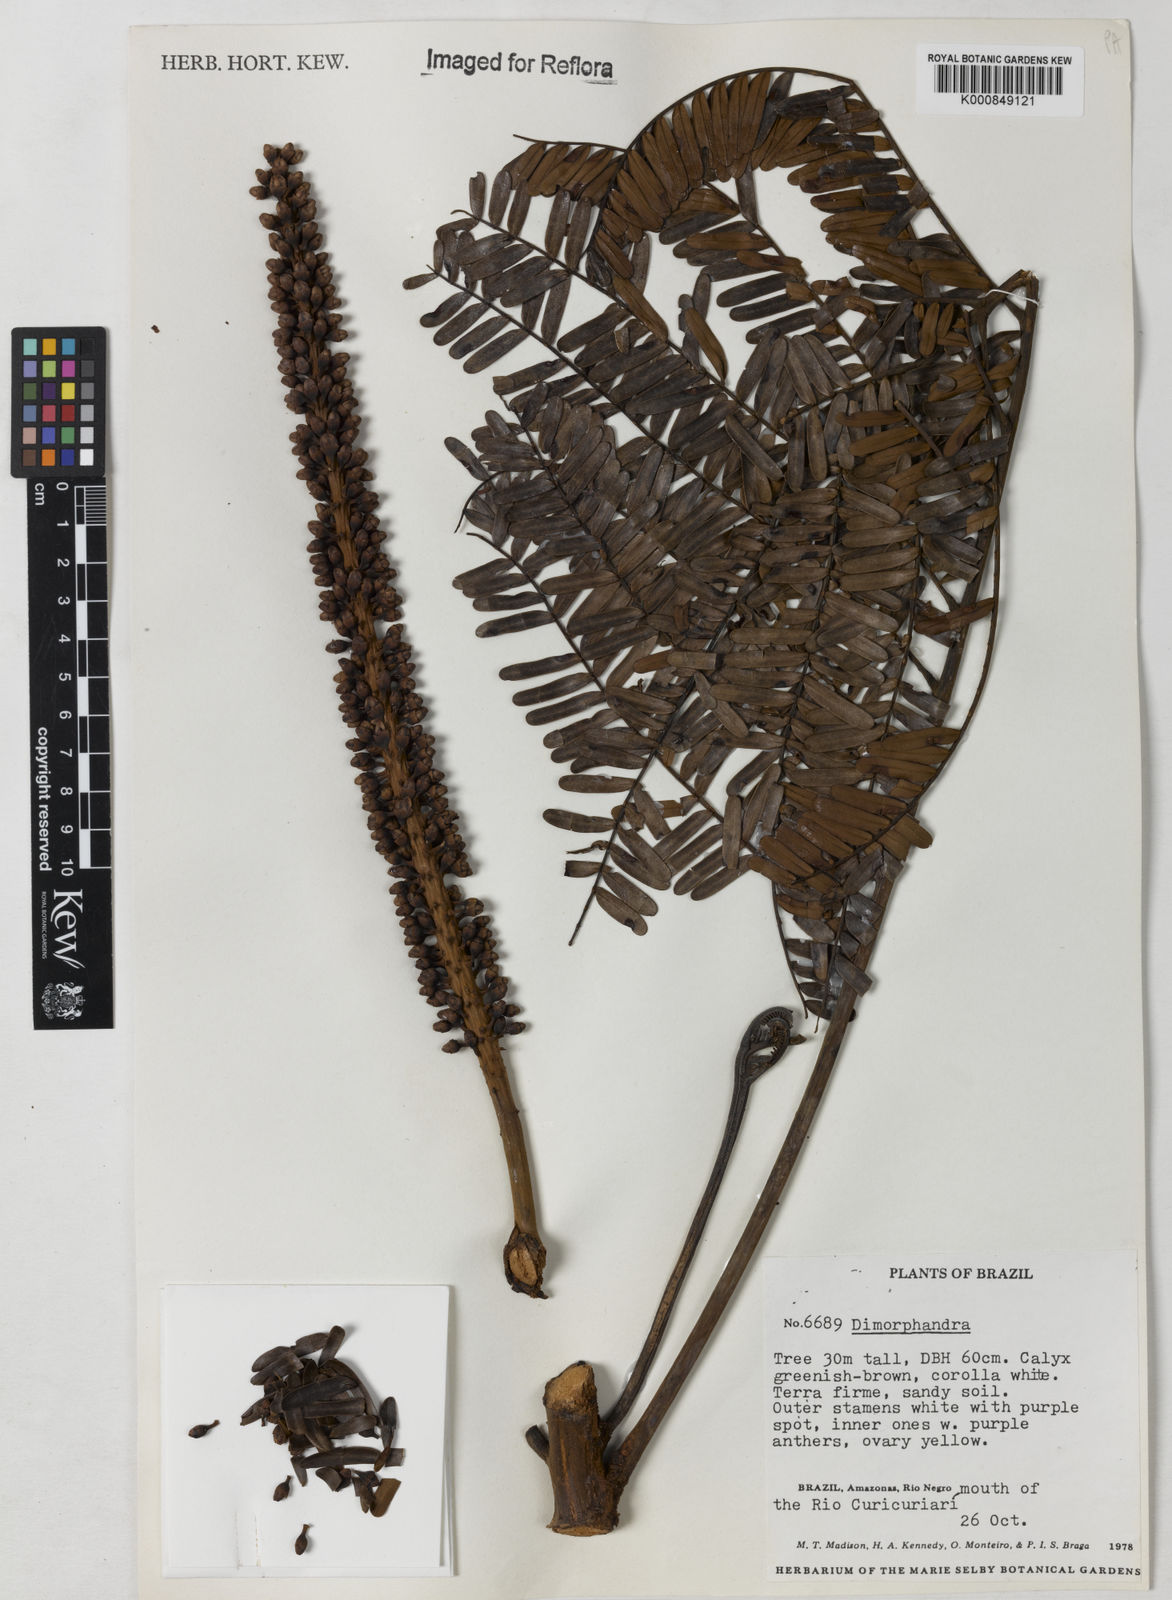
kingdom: Plantae
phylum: Tracheophyta
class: Magnoliopsida
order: Fabales
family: Fabaceae
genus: Dimorphandra
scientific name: Dimorphandra
